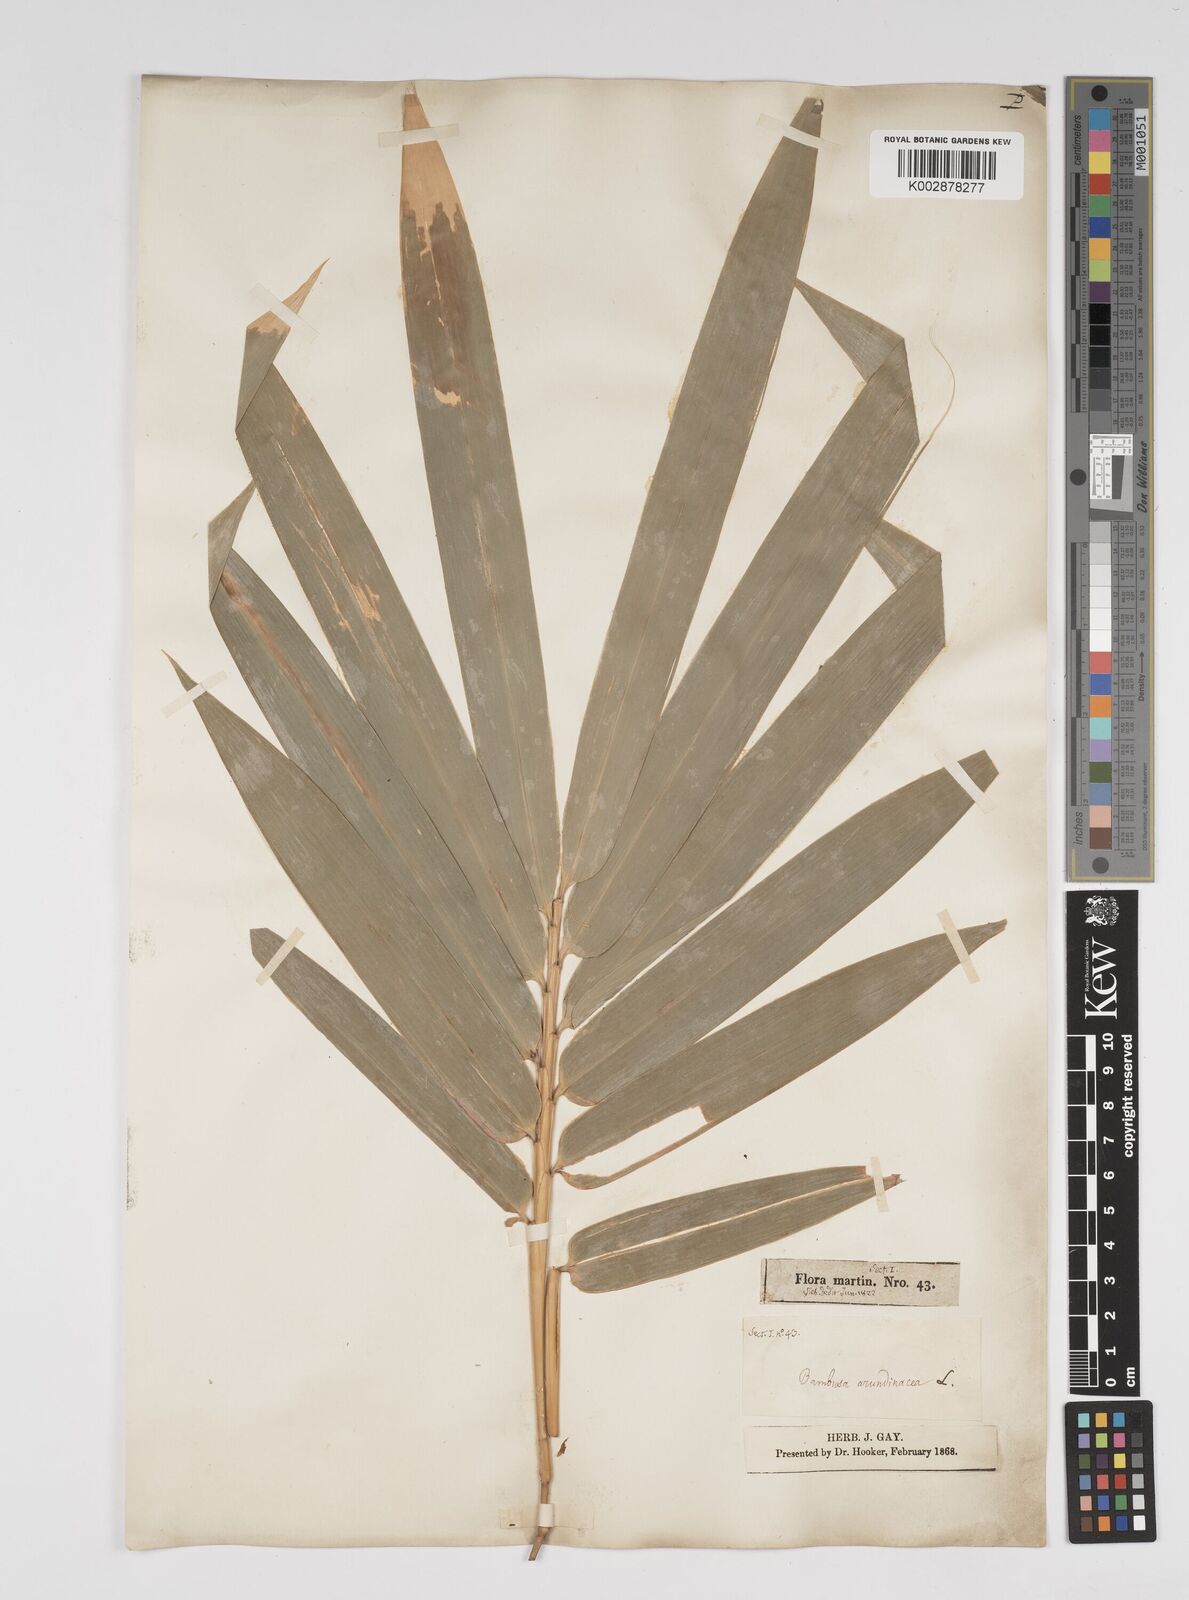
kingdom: Plantae
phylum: Tracheophyta
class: Liliopsida
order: Poales
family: Poaceae
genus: Bambusa
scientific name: Bambusa vulgaris
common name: Common bamboo
